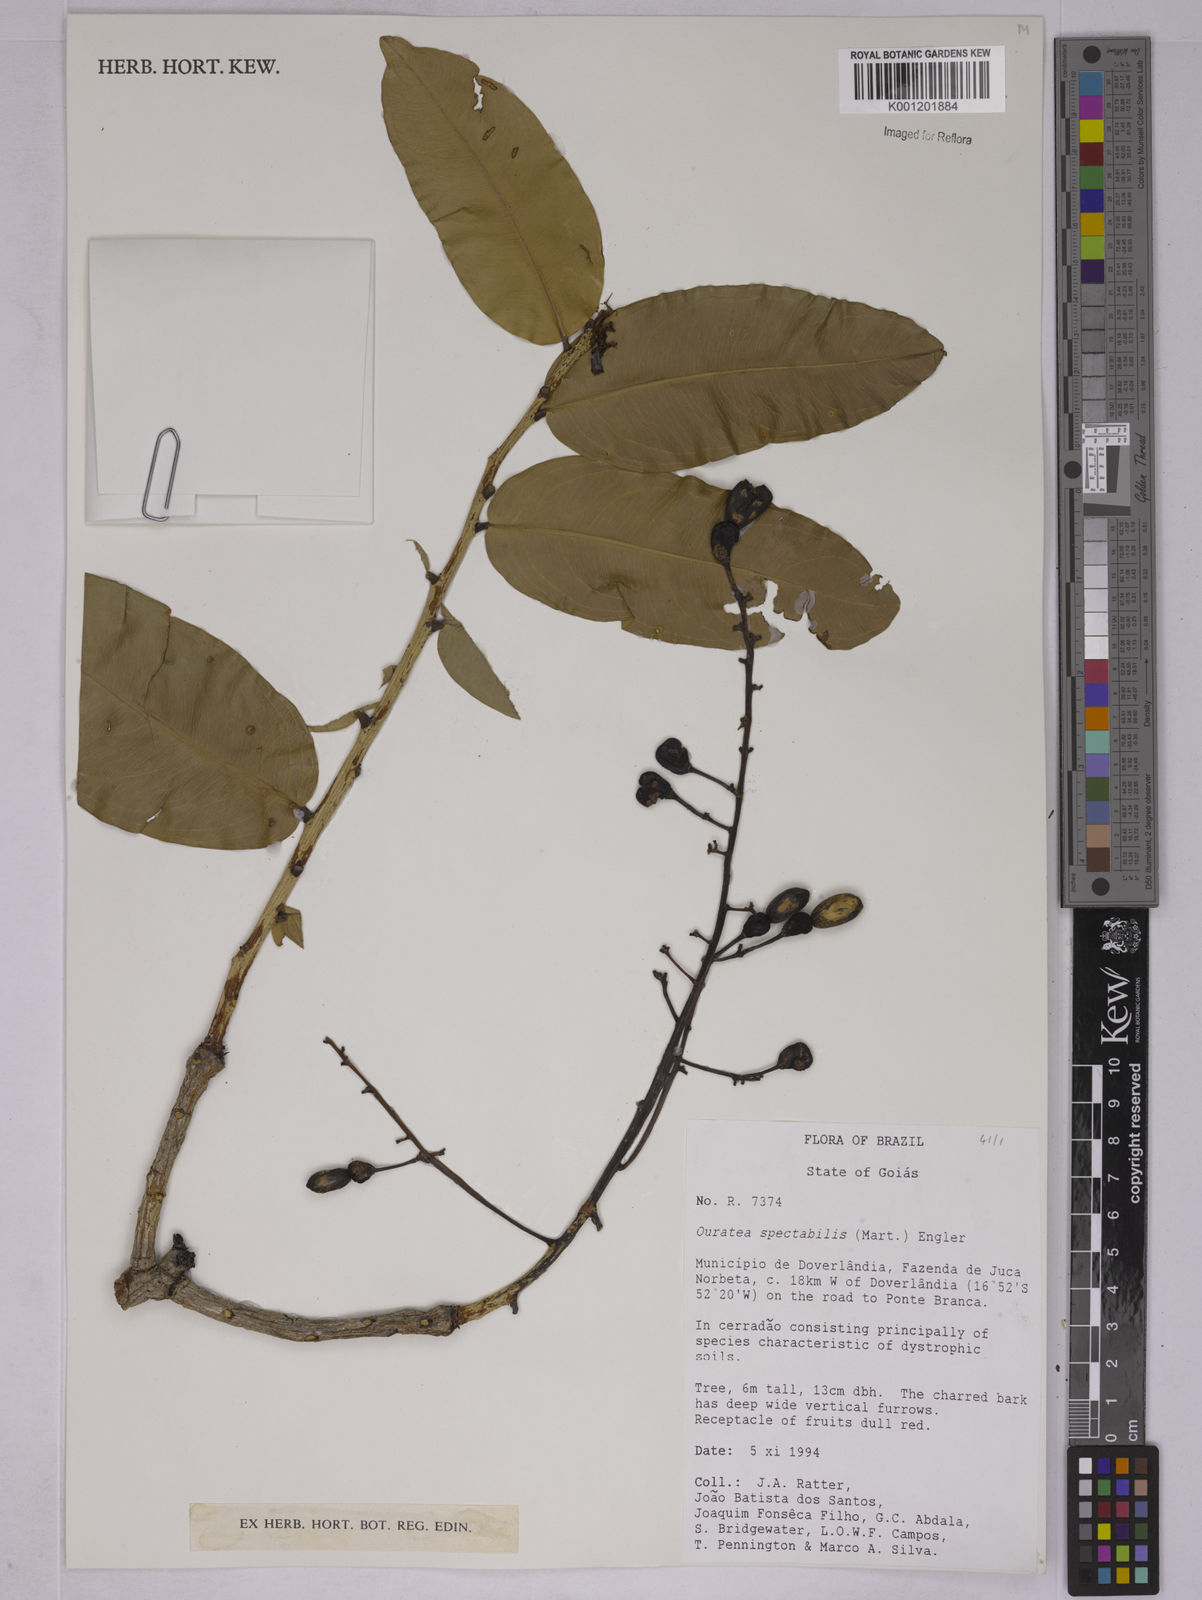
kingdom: Plantae
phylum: Tracheophyta
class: Magnoliopsida
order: Malpighiales
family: Ochnaceae
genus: Ouratea
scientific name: Ouratea spectabilis
